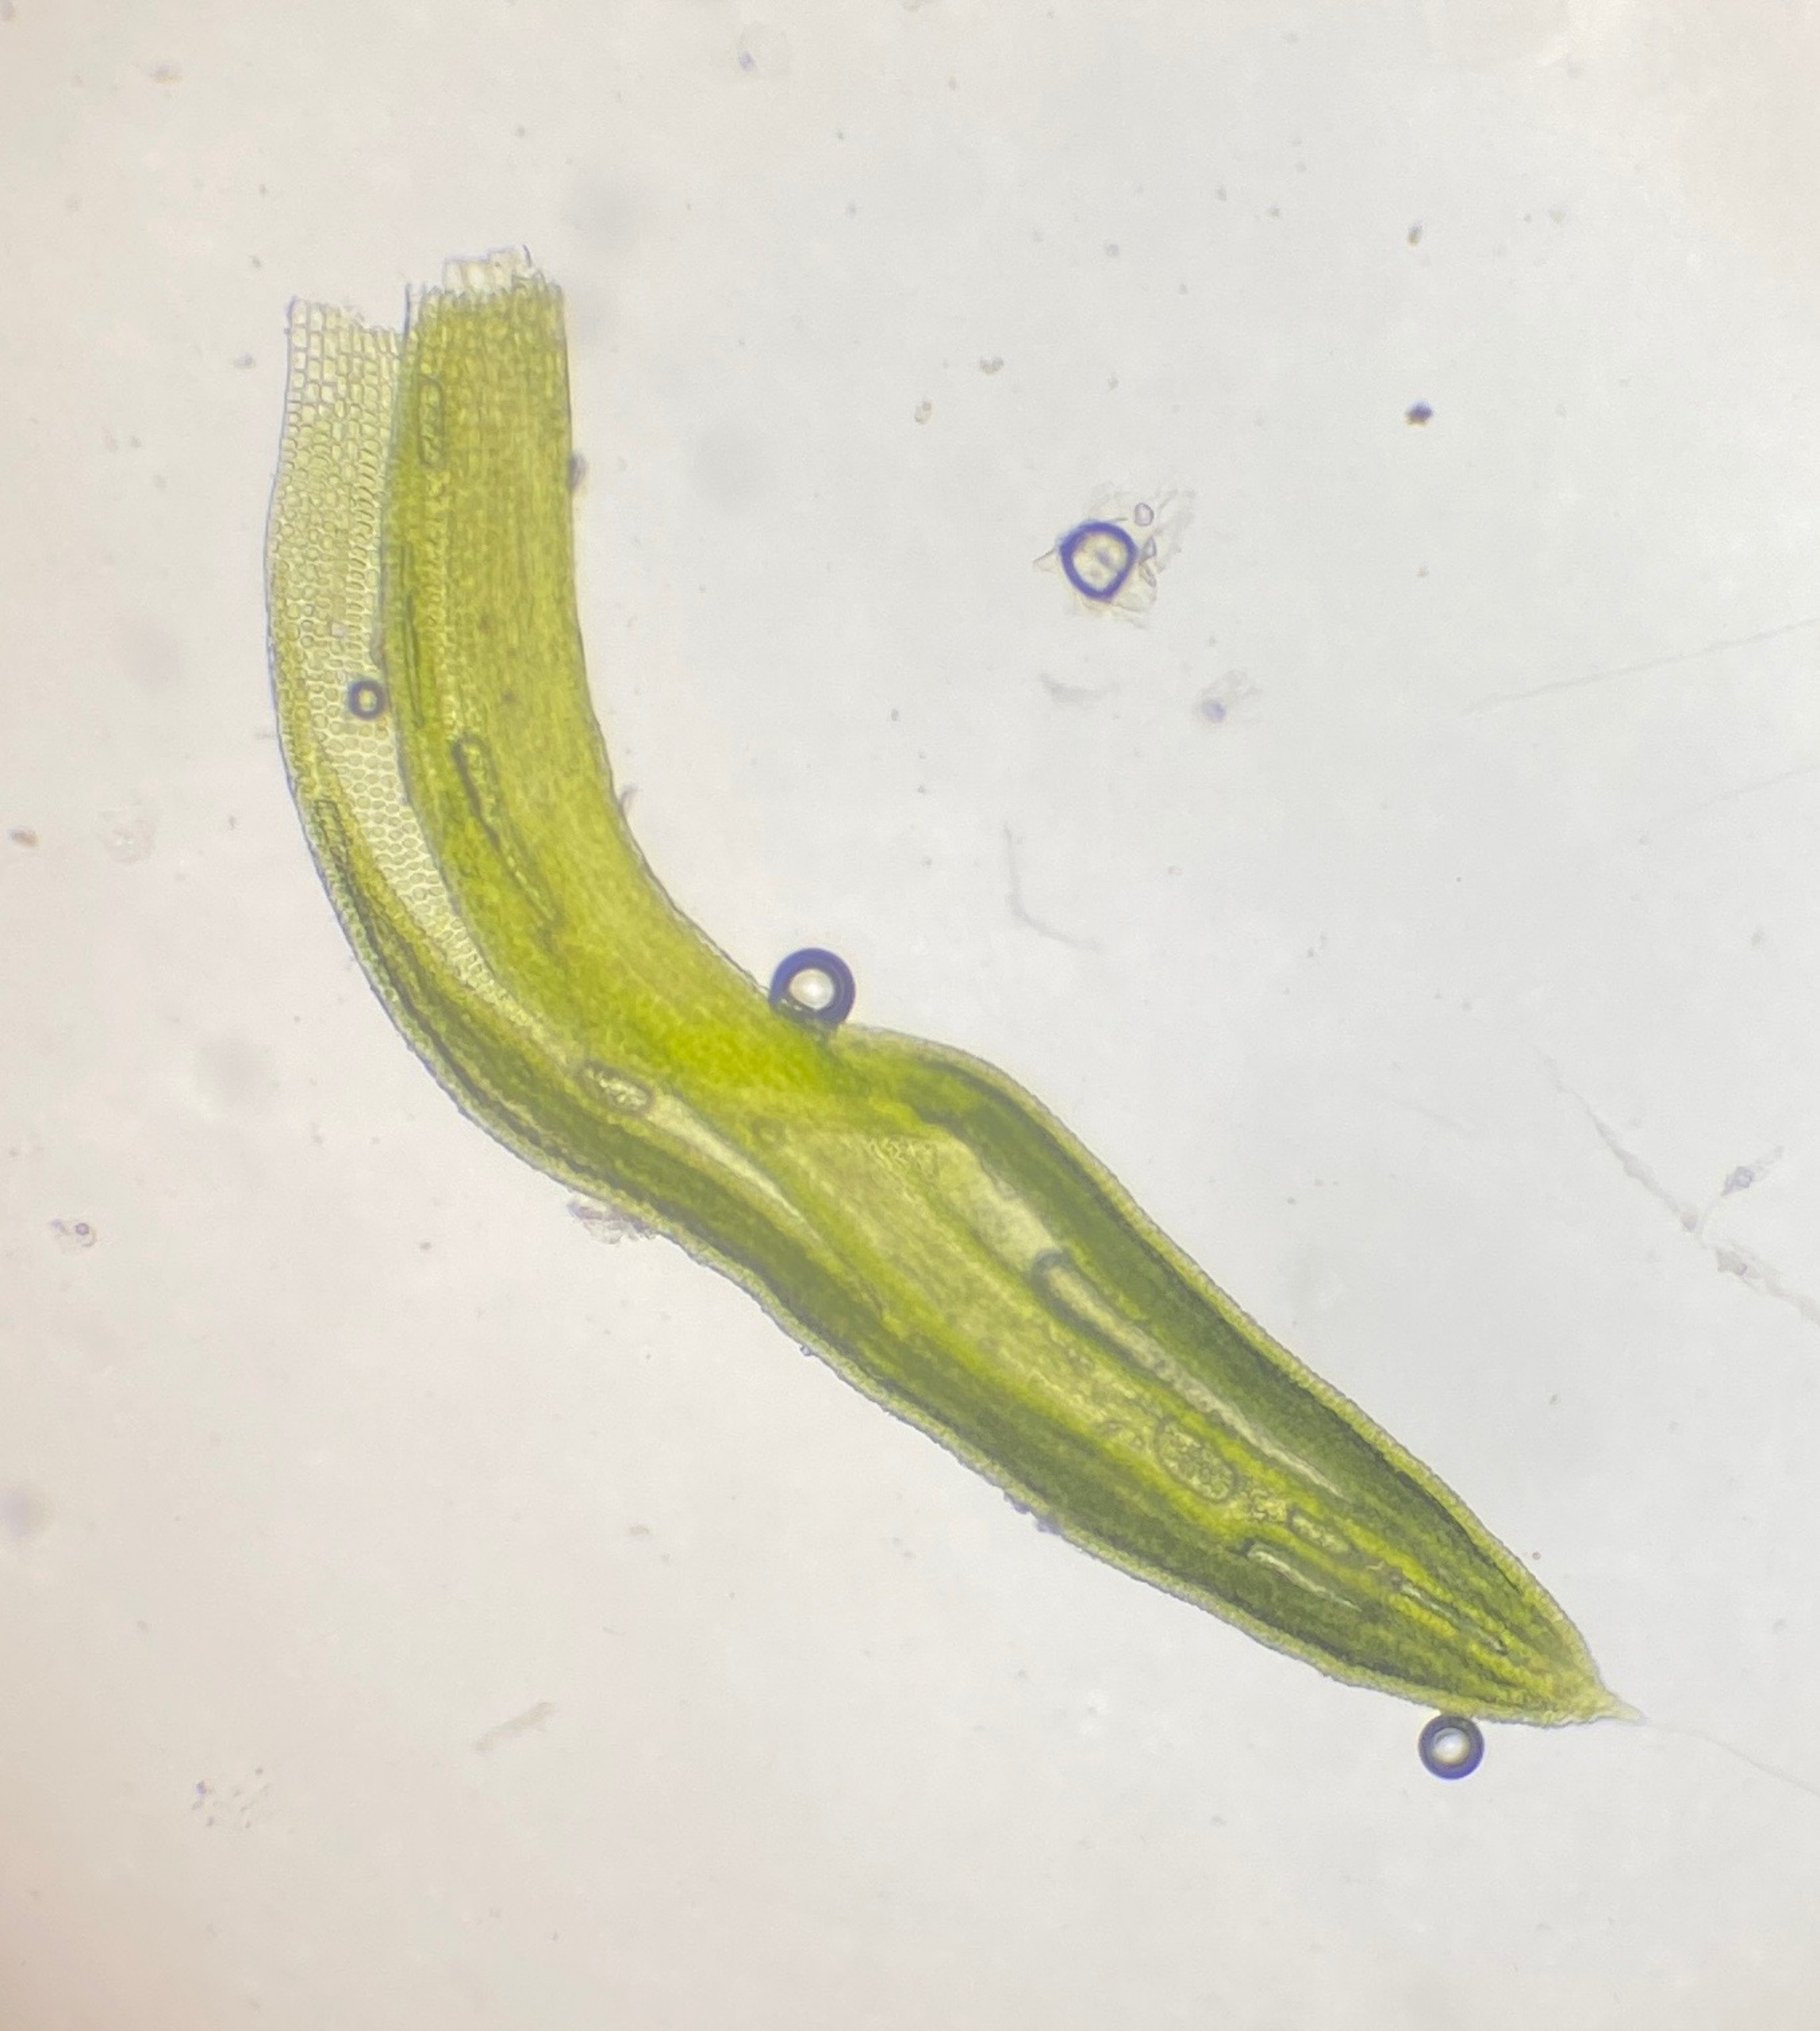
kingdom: Plantae
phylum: Bryophyta
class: Bryopsida
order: Pottiales
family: Pottiaceae
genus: Pseudocrossidium
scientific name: Pseudocrossidium revolutum
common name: Skrue-rullerand
